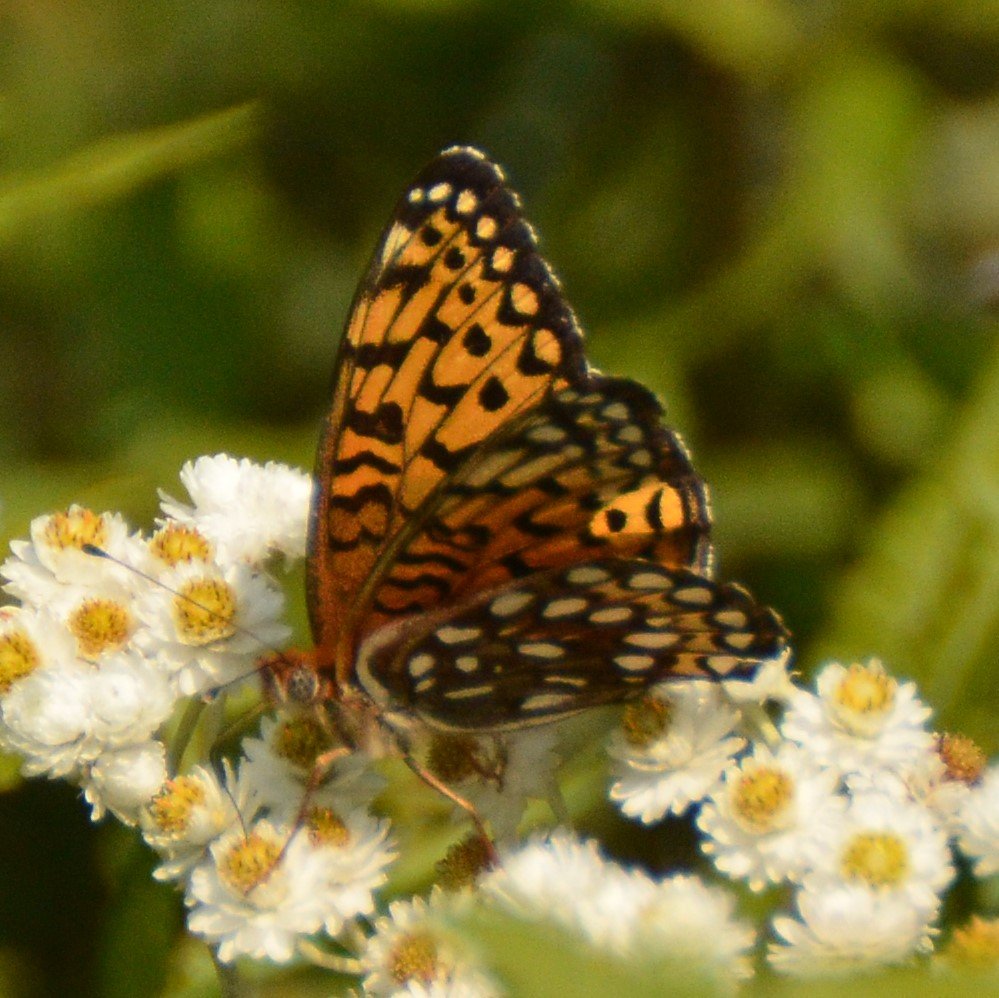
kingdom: Animalia
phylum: Arthropoda
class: Insecta
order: Lepidoptera
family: Nymphalidae
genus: Speyeria
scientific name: Speyeria atlantis
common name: Atlantis Fritillary
